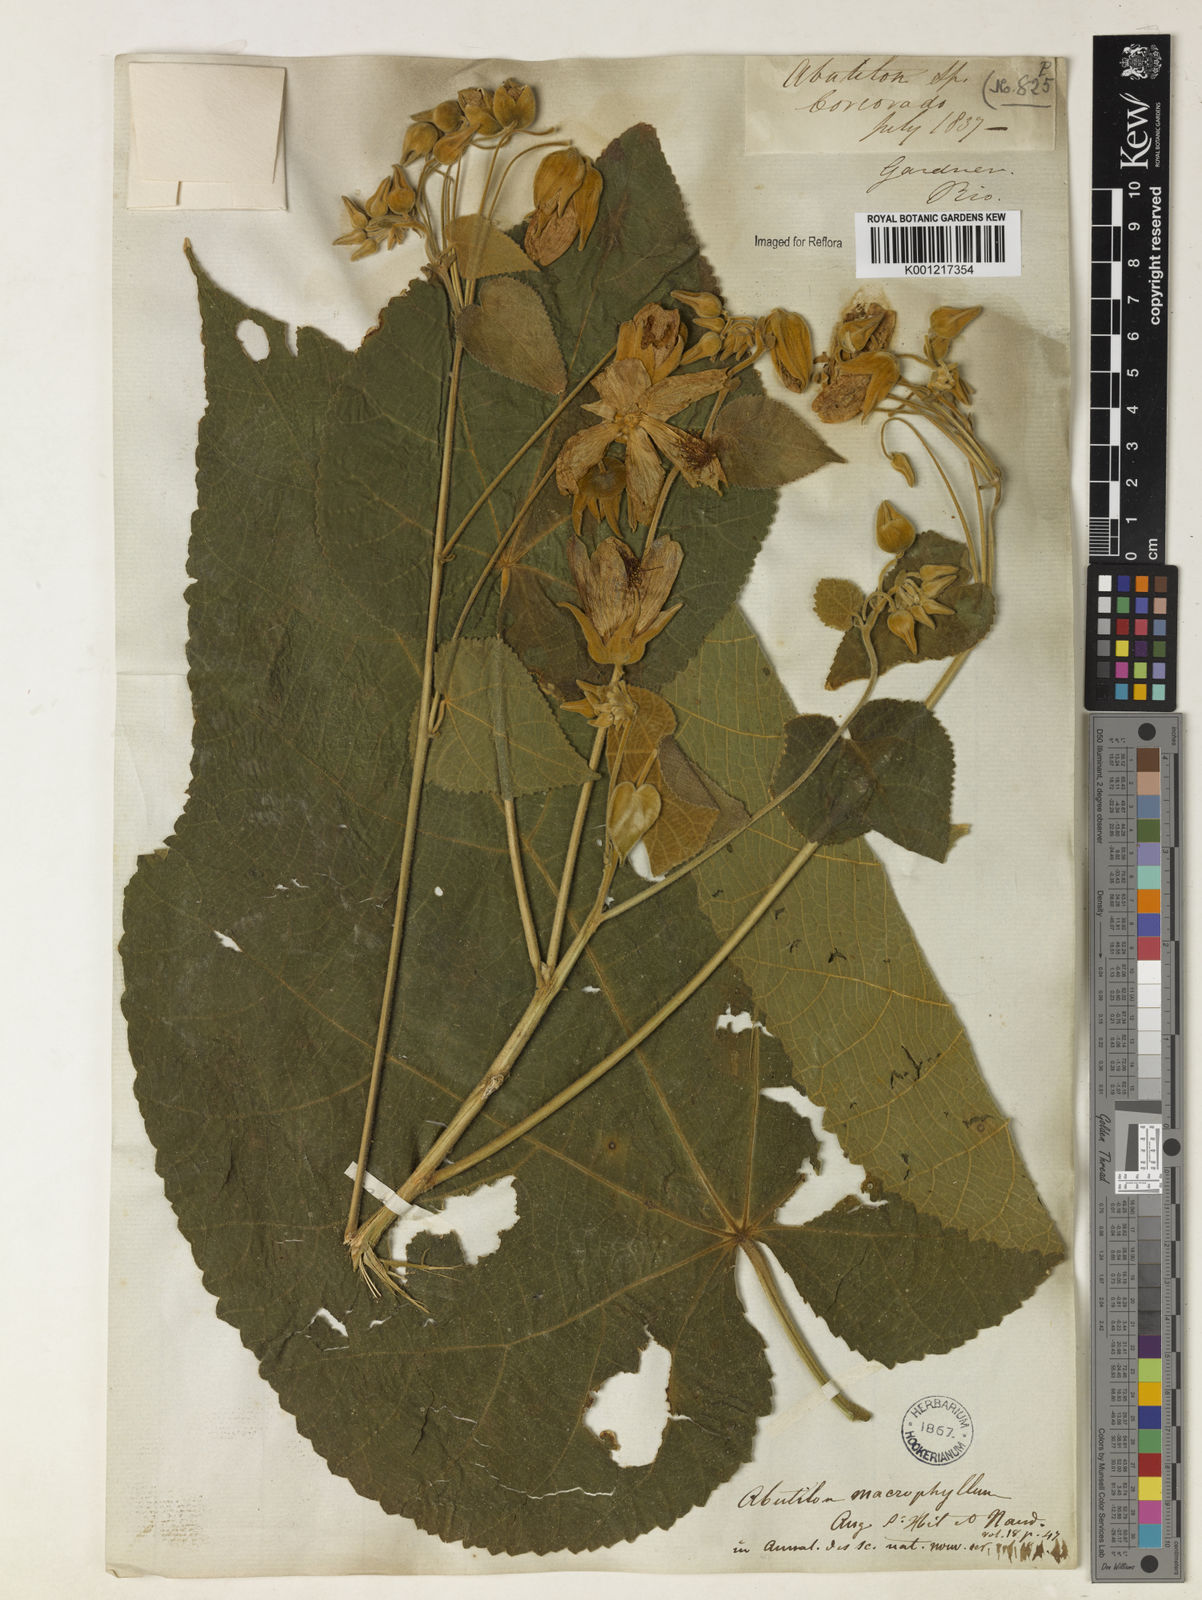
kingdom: Plantae
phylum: Tracheophyta
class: Magnoliopsida
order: Malvales
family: Malvaceae
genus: Callianthe
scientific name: Callianthe sellowiana
